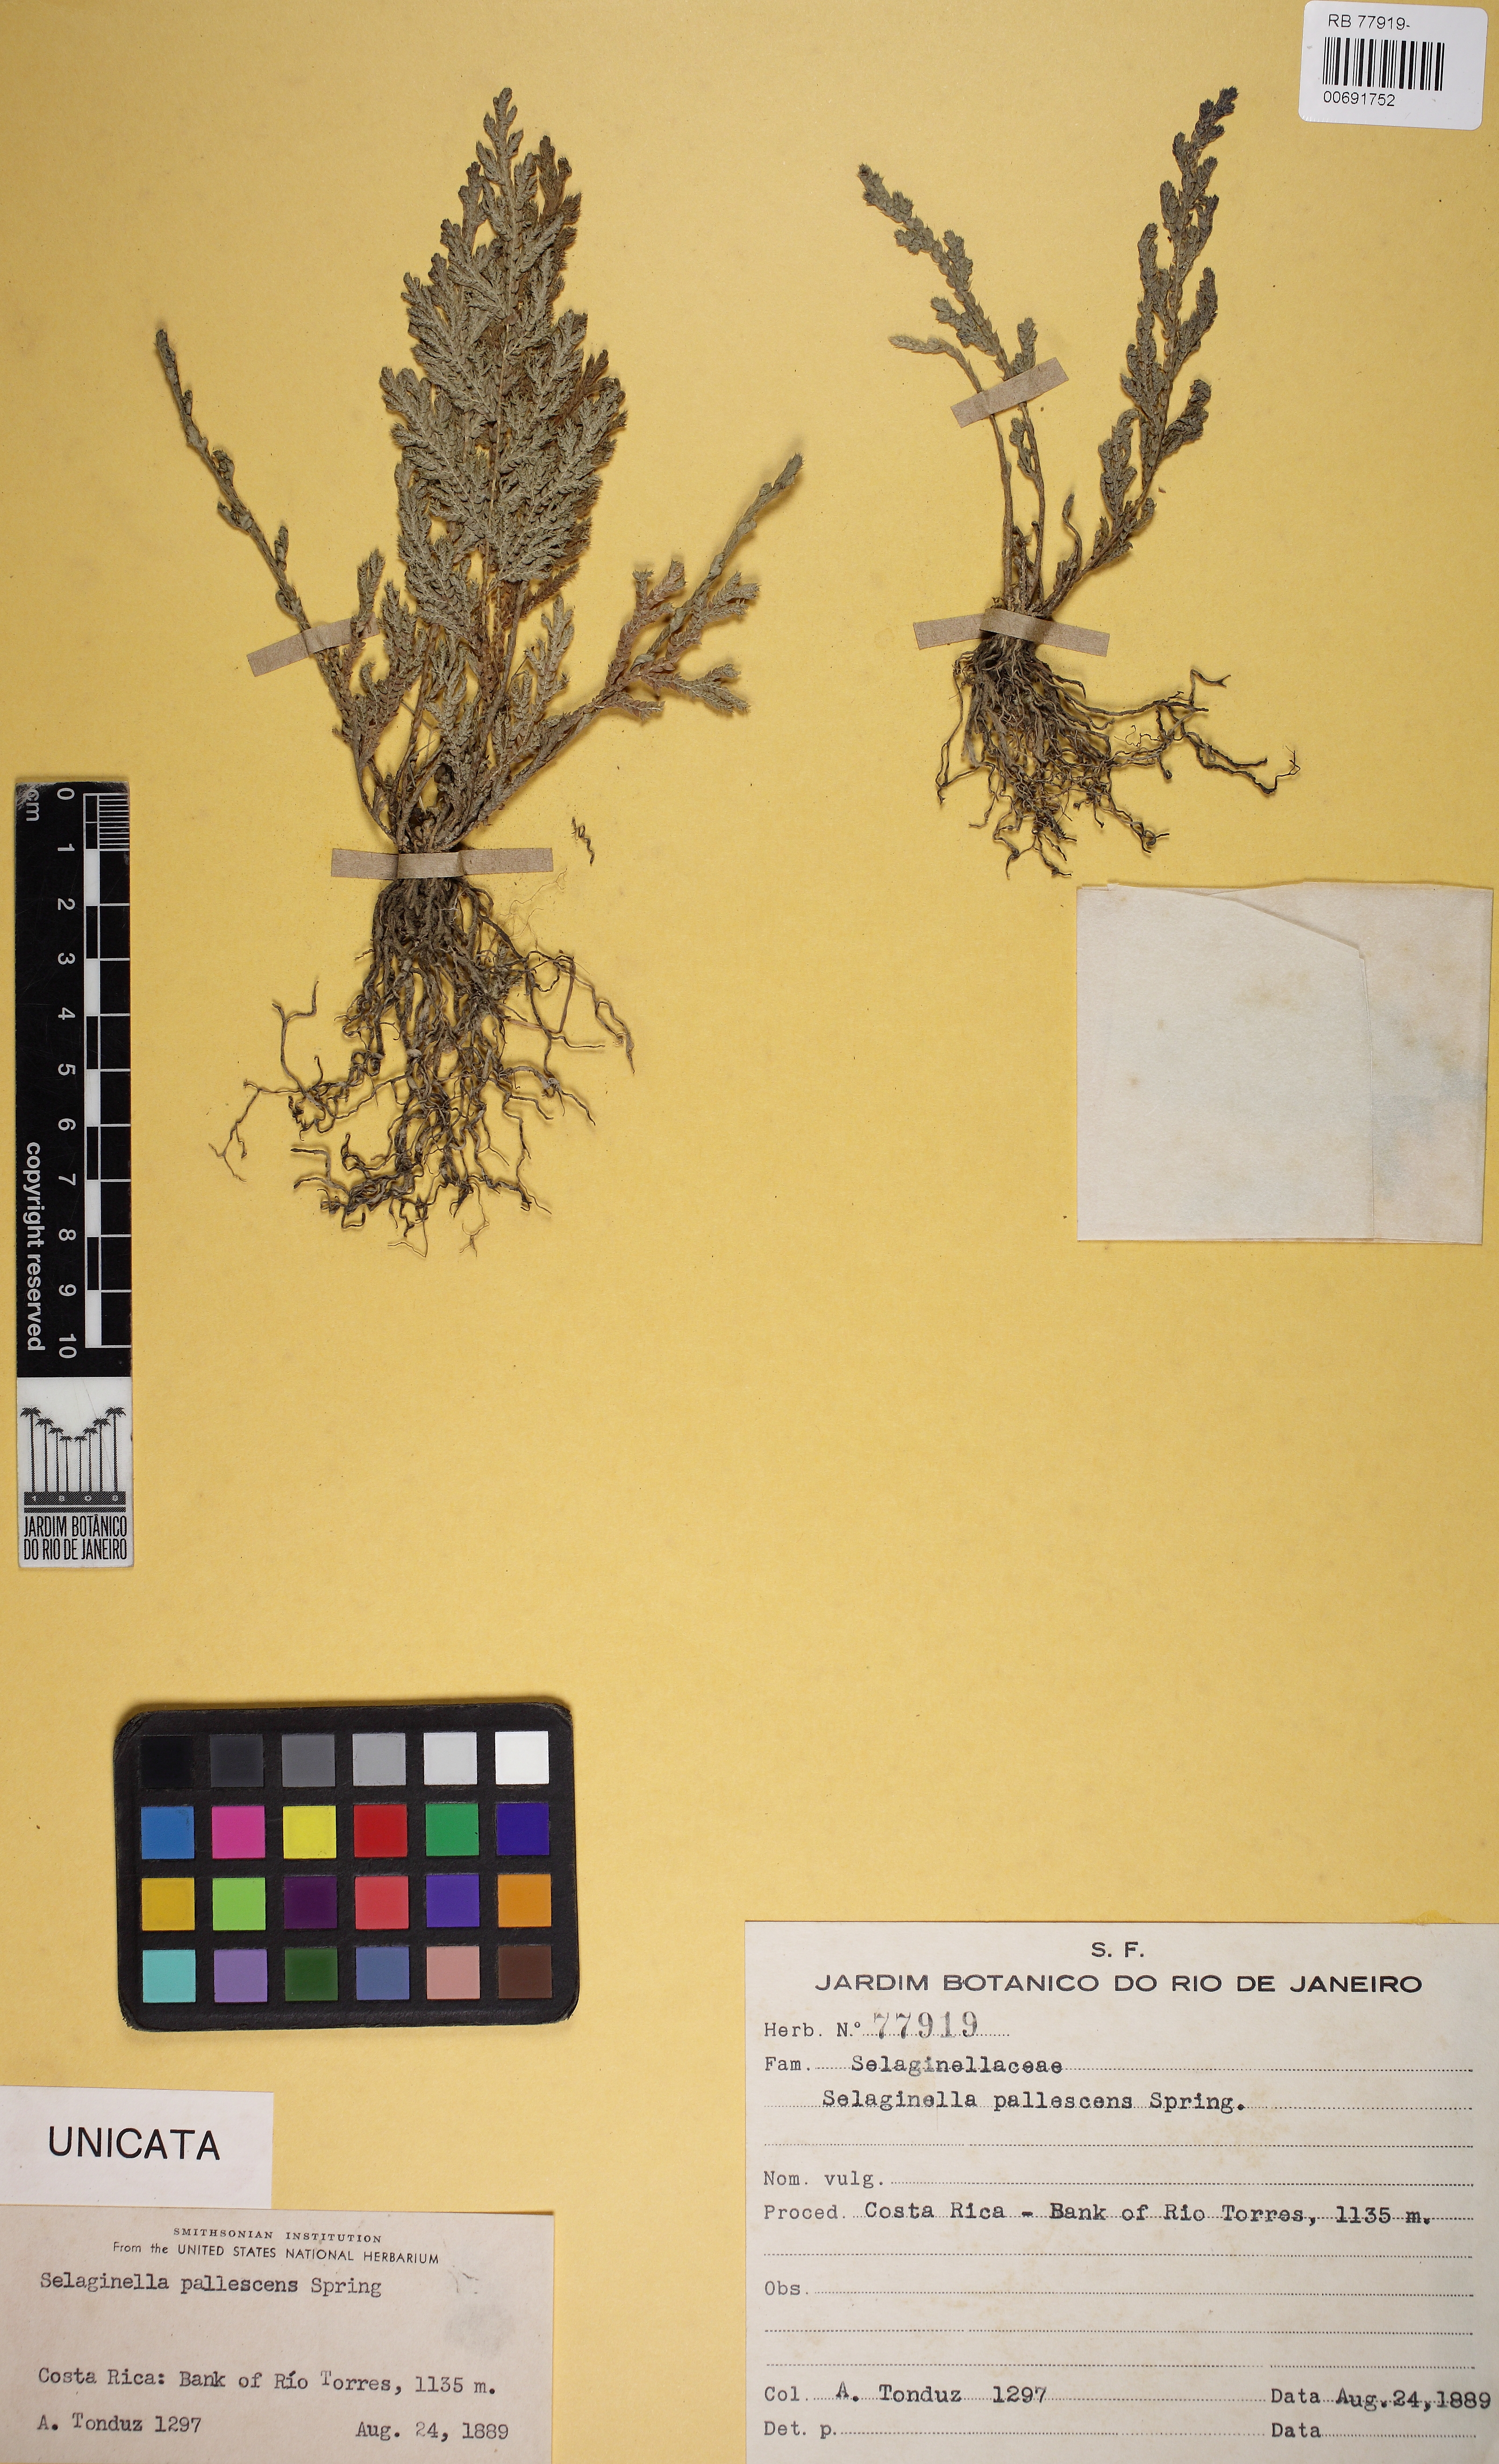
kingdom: Plantae
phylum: Tracheophyta
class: Lycopodiopsida
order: Selaginellales
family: Selaginellaceae
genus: Selaginella
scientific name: Selaginella pallescens
